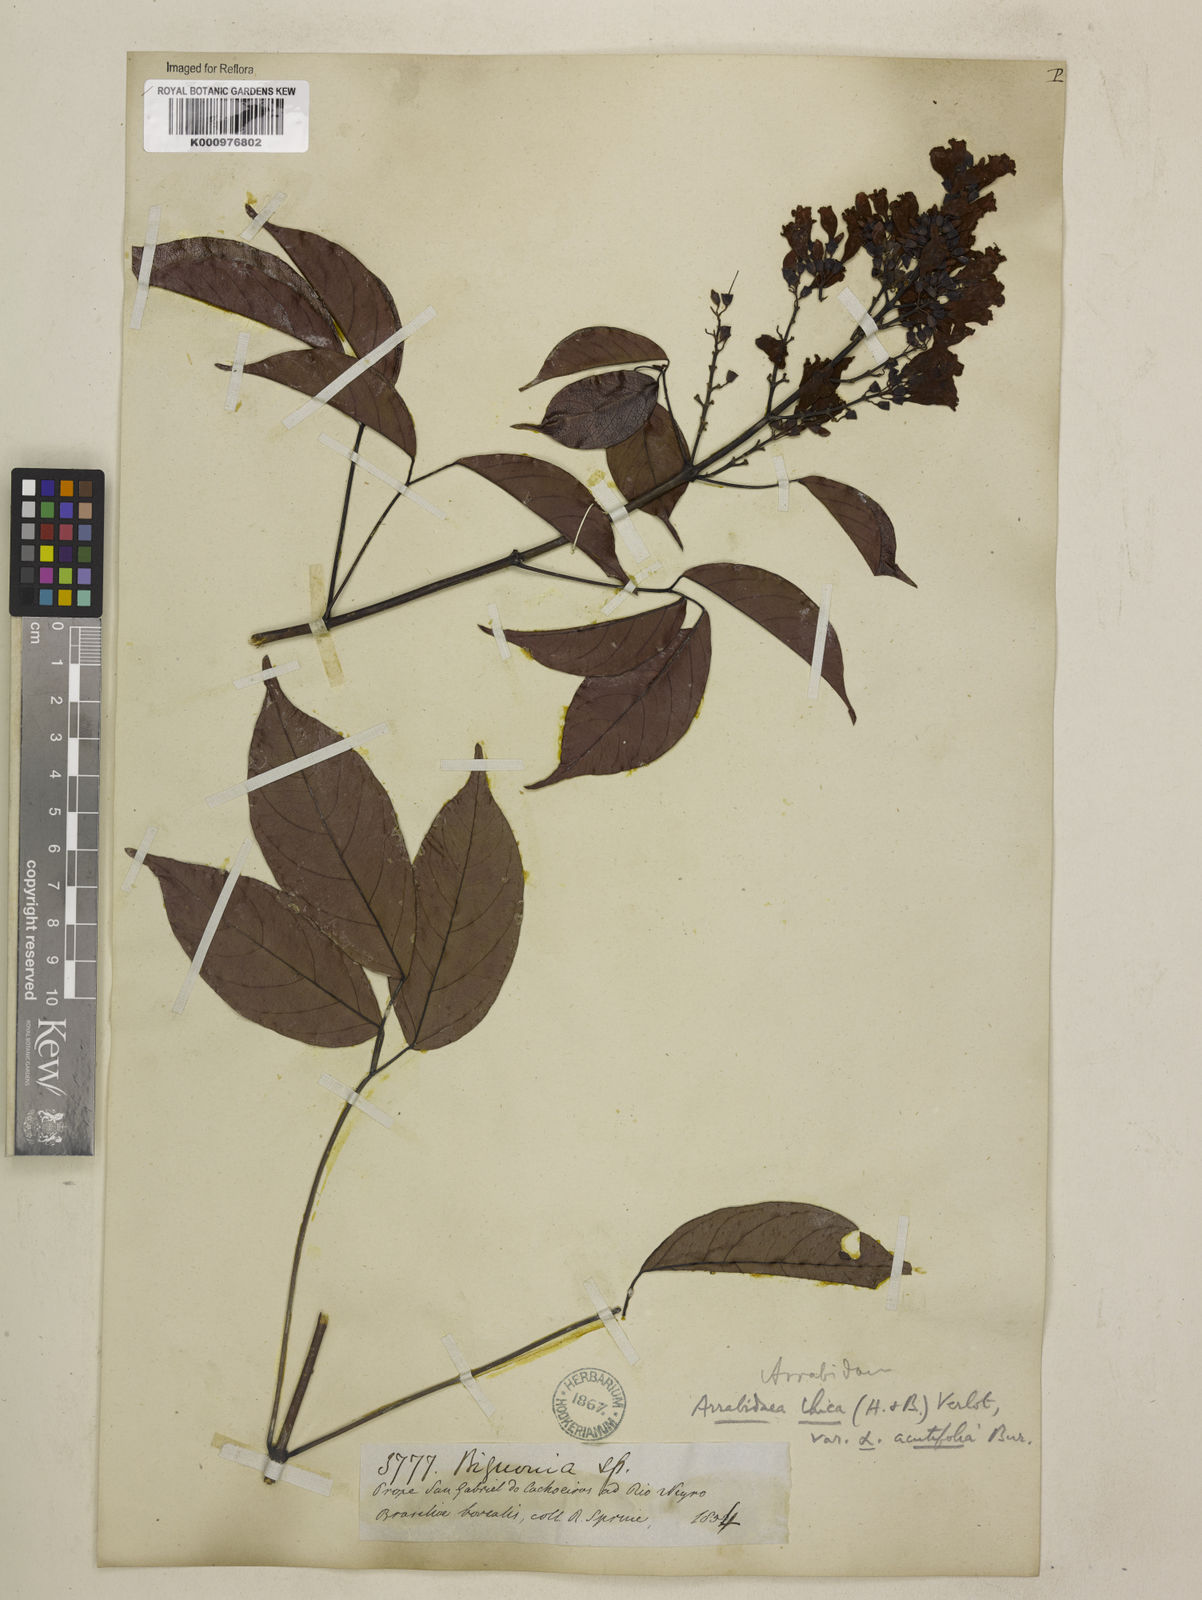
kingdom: Plantae
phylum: Tracheophyta
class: Magnoliopsida
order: Lamiales
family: Bignoniaceae
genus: Fridericia
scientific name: Fridericia chica
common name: Cricketvine
